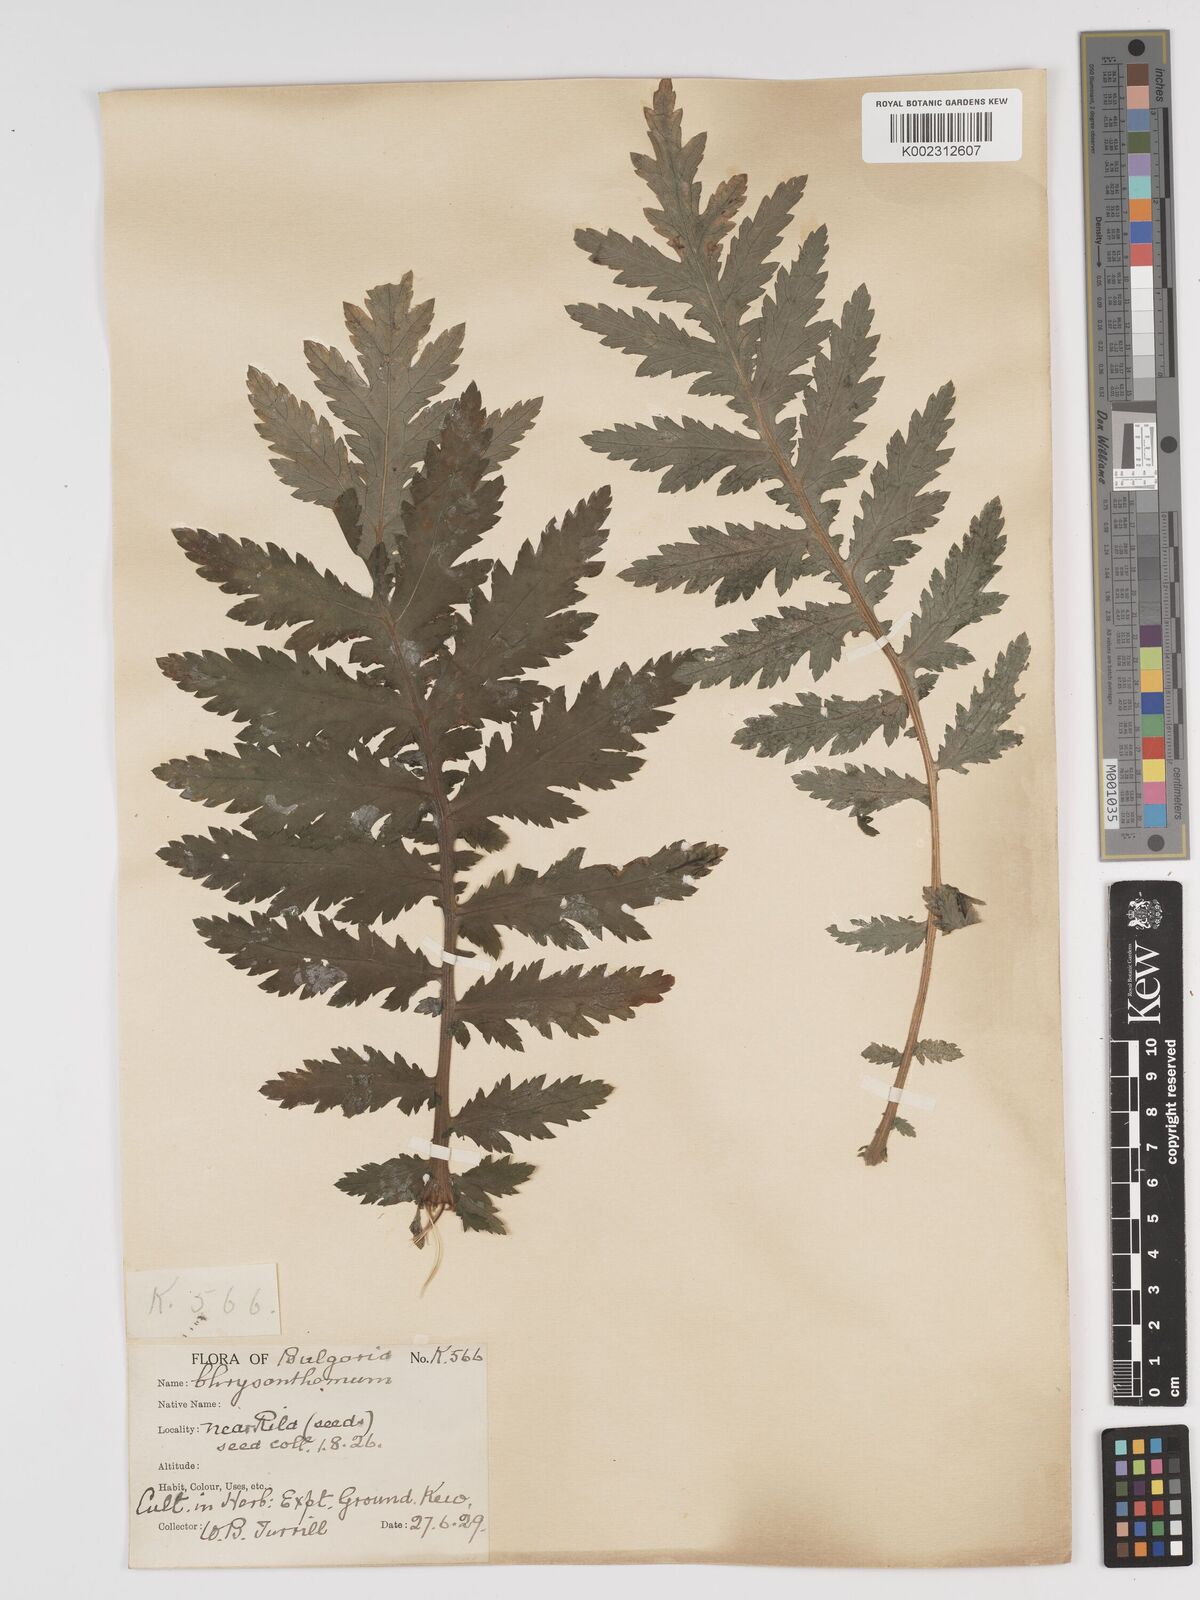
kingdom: Plantae
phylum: Tracheophyta
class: Magnoliopsida
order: Asterales
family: Asteraceae
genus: Tanacetum
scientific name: Tanacetum macrophyllum
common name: Rayed tansy
